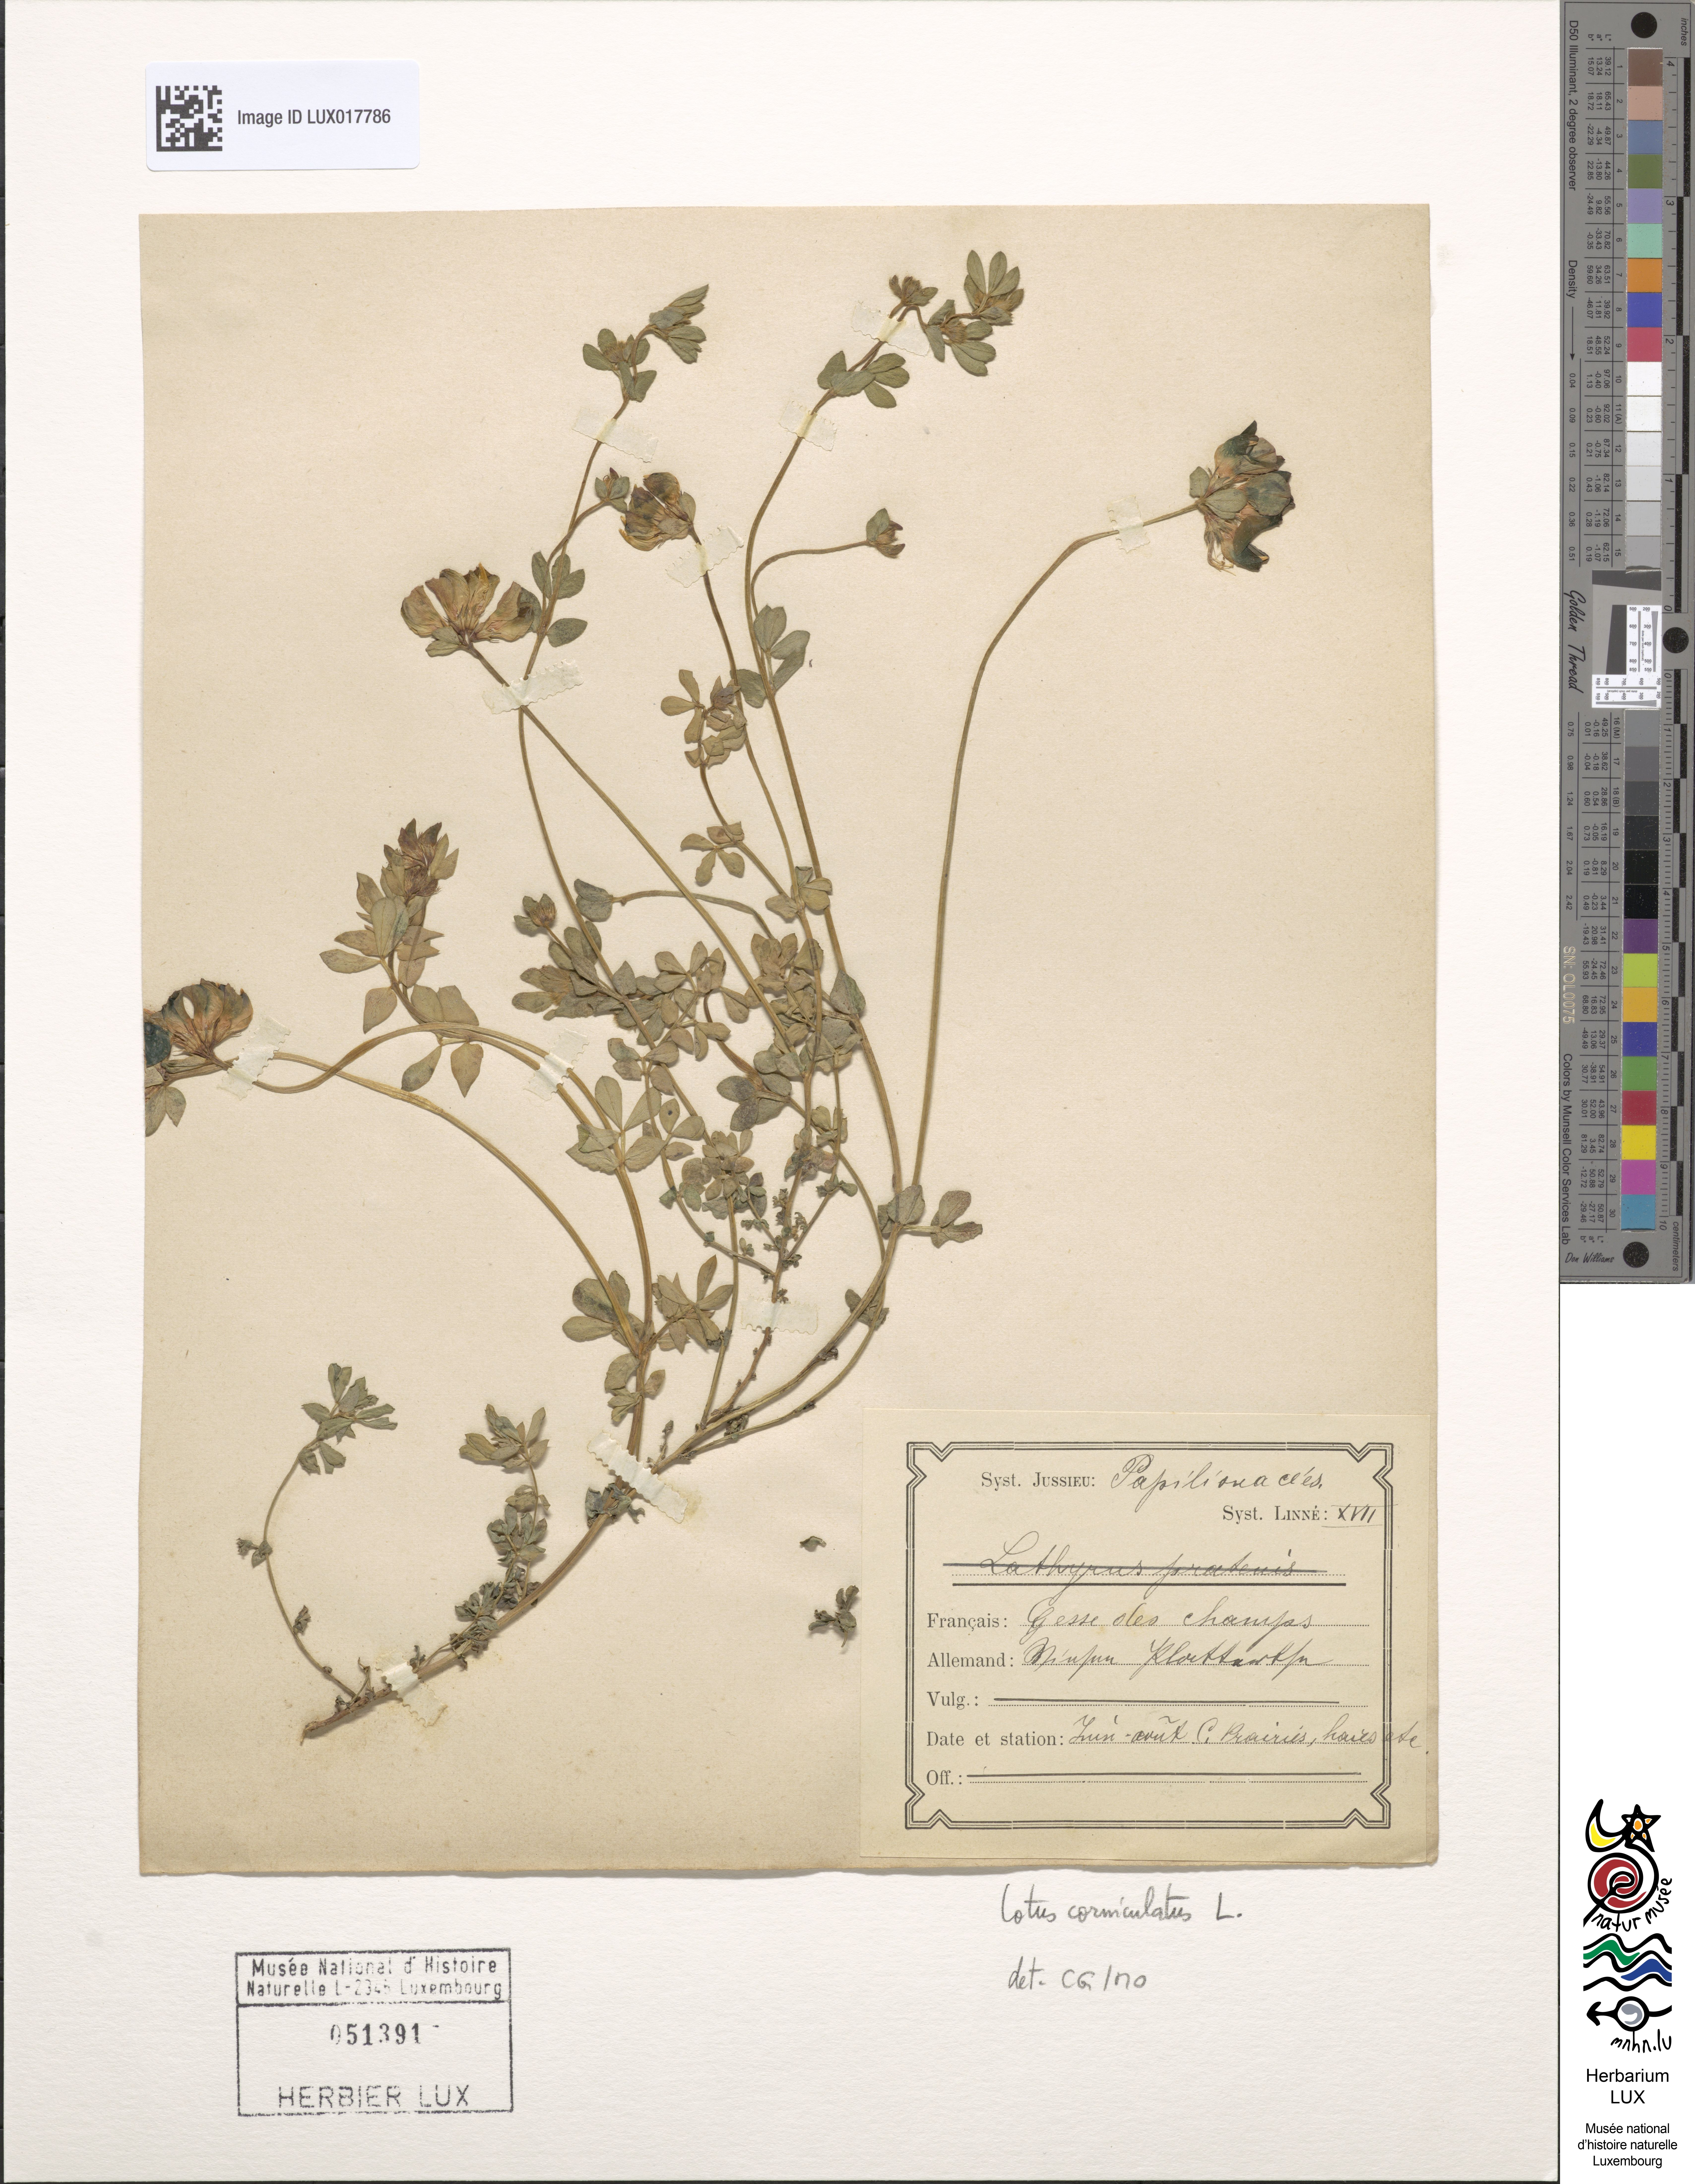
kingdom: Plantae
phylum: Tracheophyta
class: Magnoliopsida
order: Fabales
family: Fabaceae
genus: Lotus
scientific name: Lotus corniculatus
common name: Common bird's-foot-trefoil
